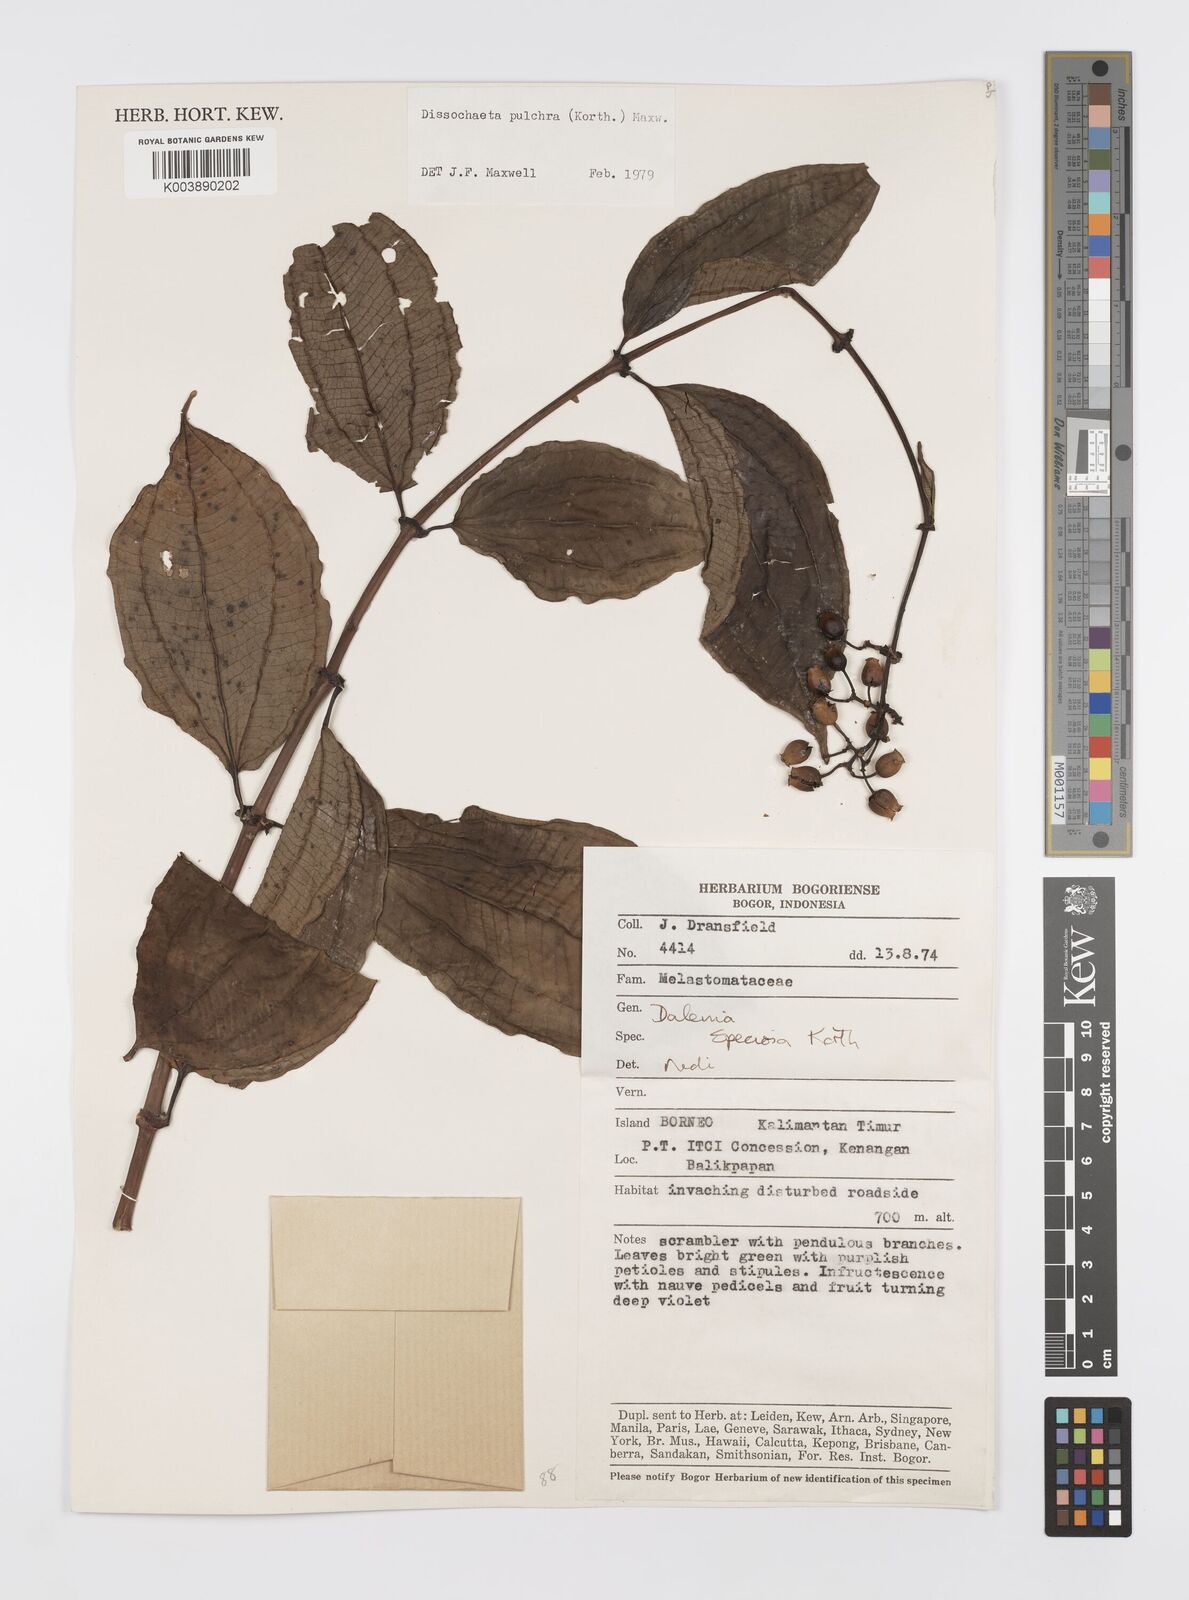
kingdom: Plantae
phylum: Tracheophyta
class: Magnoliopsida
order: Myrtales
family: Melastomataceae
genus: Dalenia
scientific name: Dalenia pulchra
